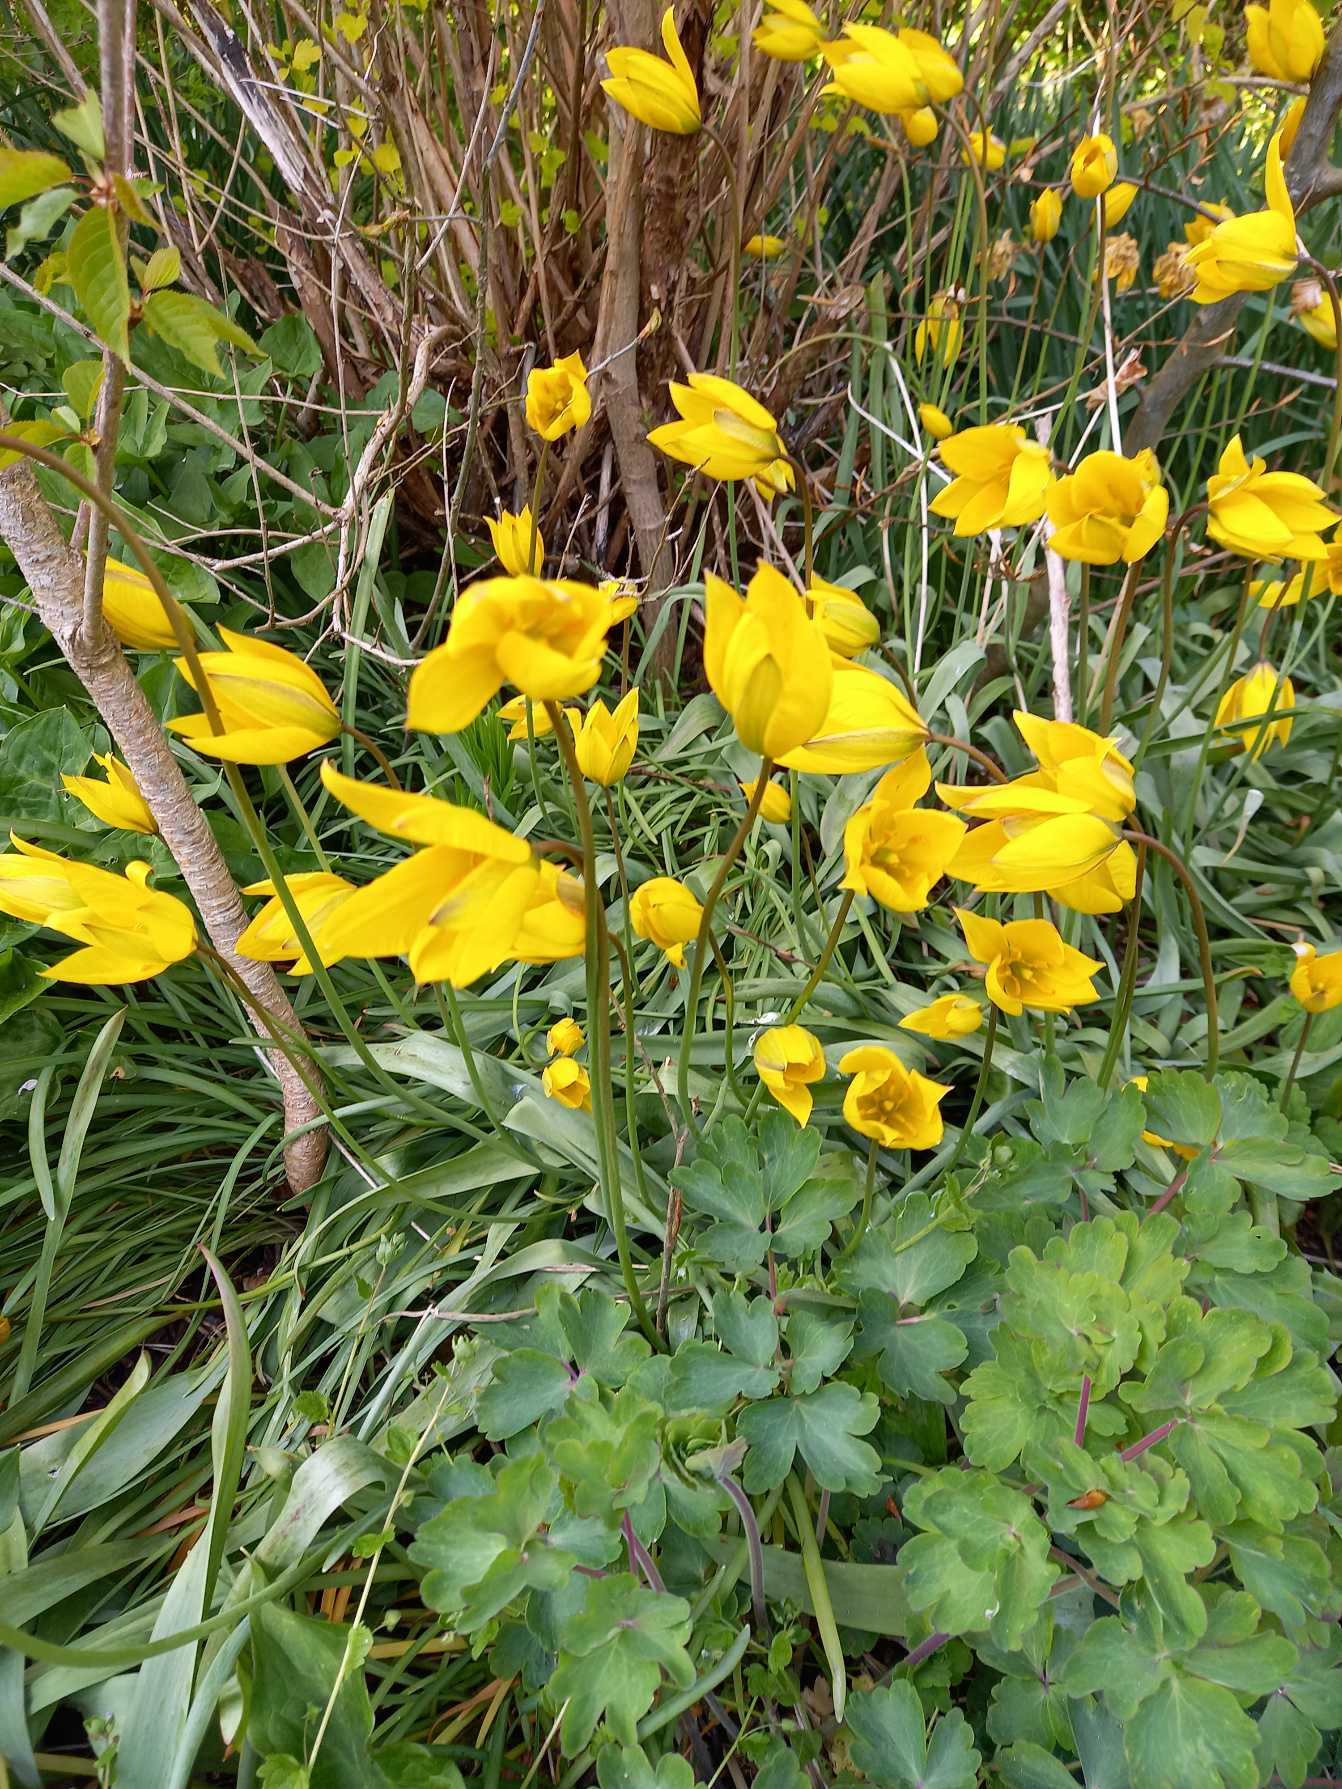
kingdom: Plantae
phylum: Tracheophyta
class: Liliopsida
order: Liliales
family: Liliaceae
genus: Tulipa
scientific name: Tulipa sylvestris
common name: Vild tulipan
